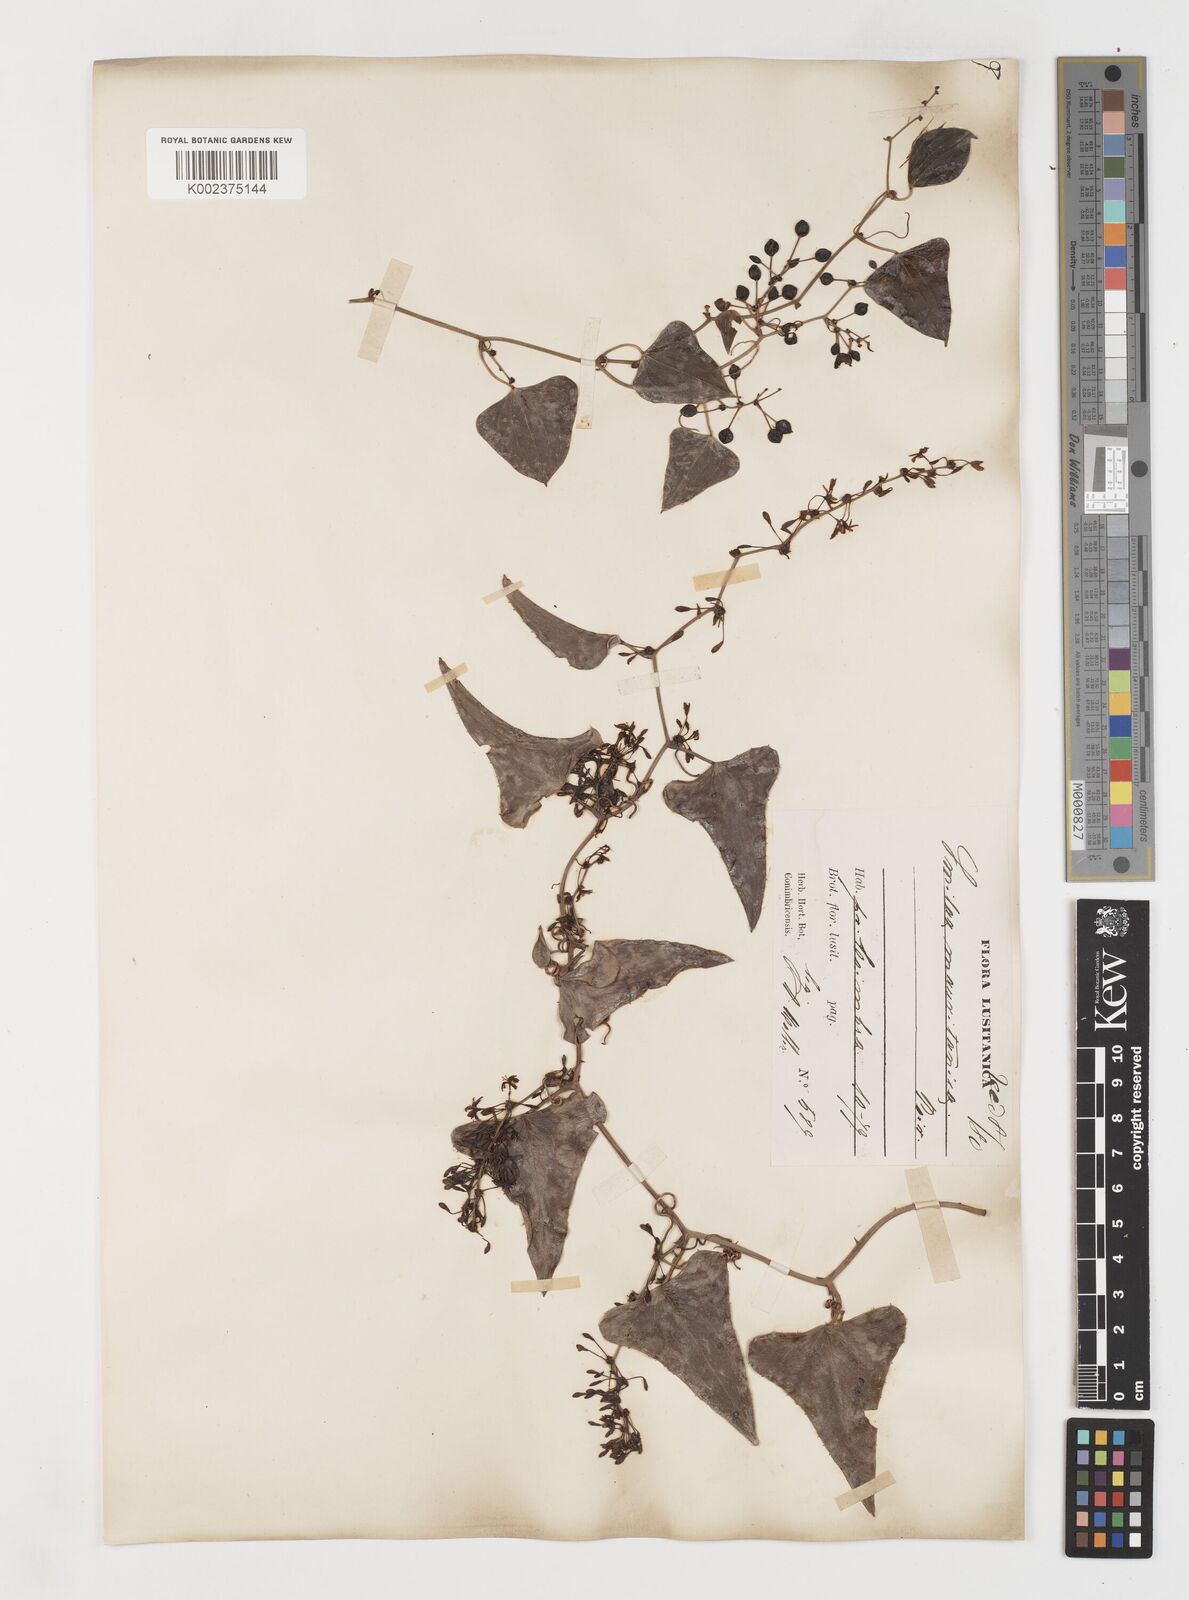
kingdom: Plantae
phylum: Tracheophyta
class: Liliopsida
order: Liliales
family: Smilacaceae
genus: Smilax
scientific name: Smilax aspera
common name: Common smilax
